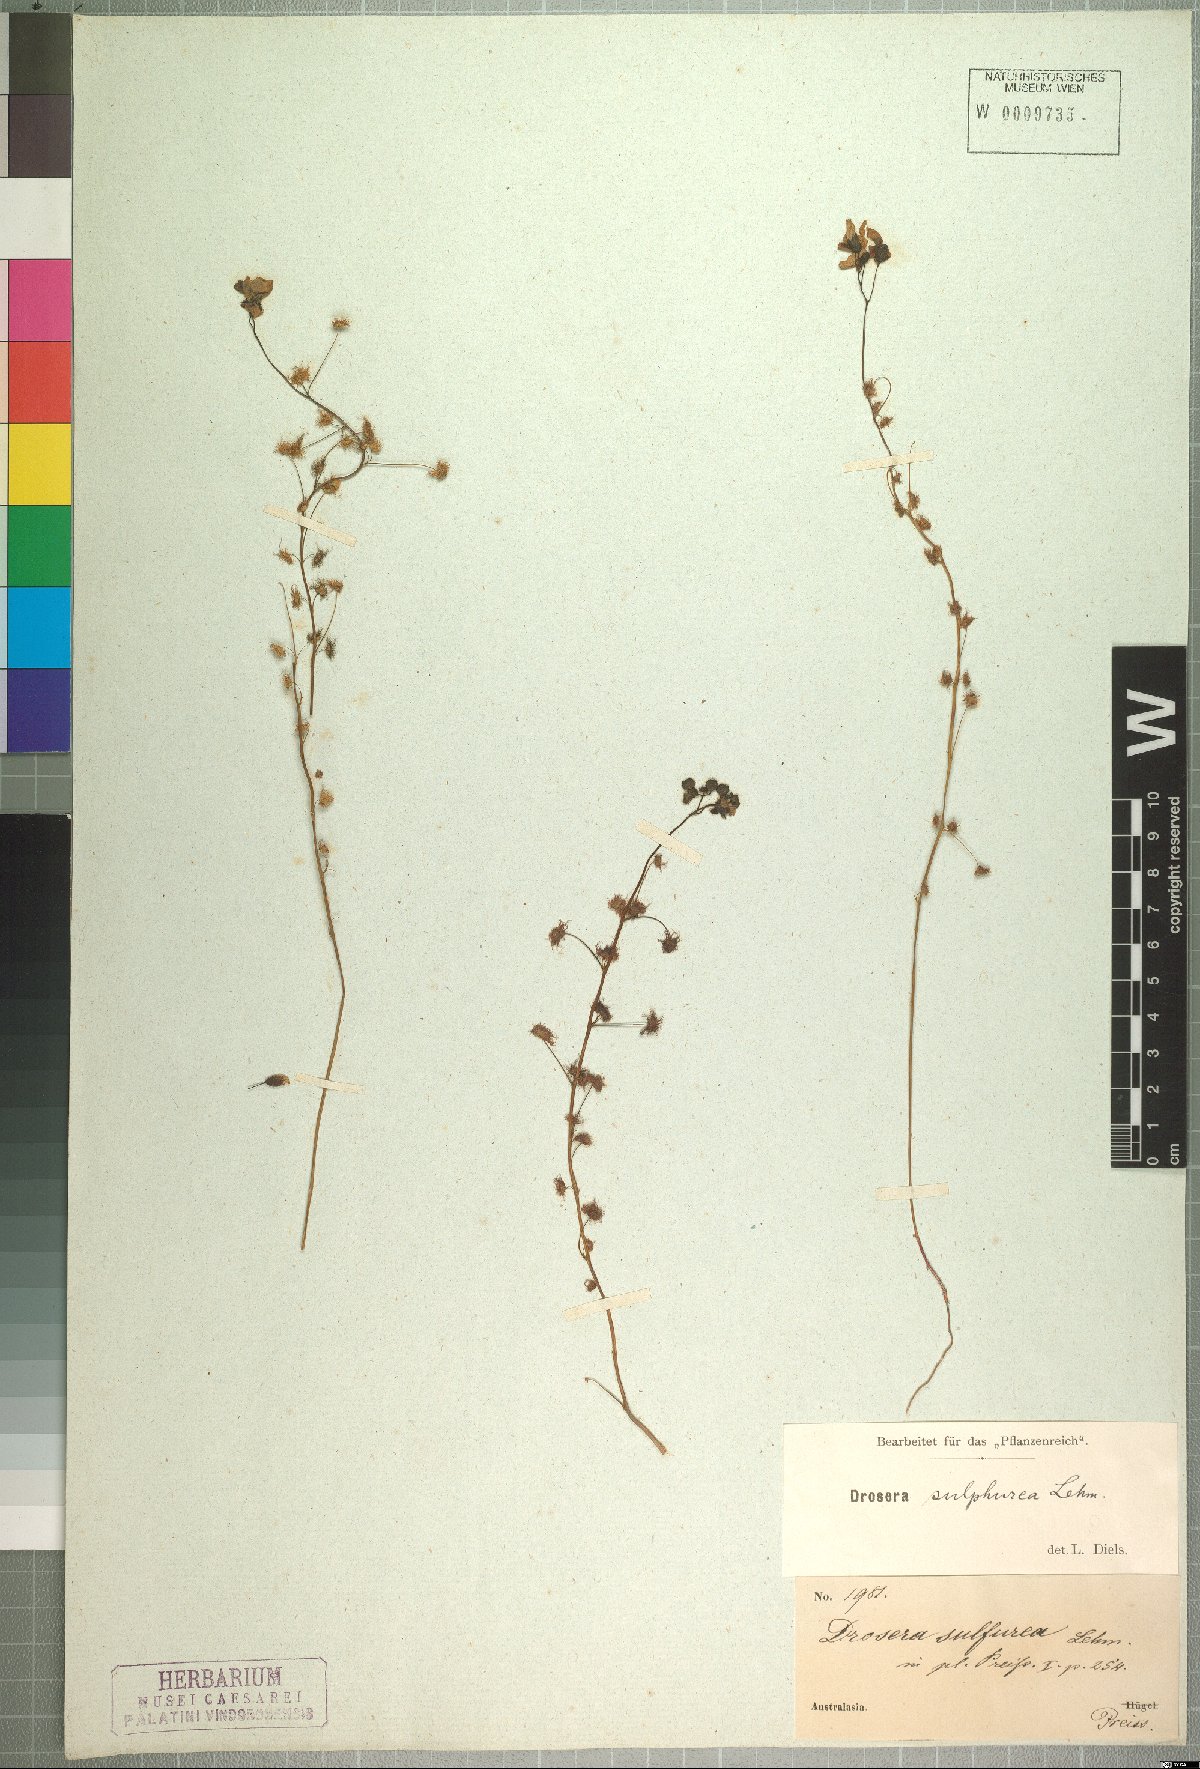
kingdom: Plantae
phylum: Tracheophyta
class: Magnoliopsida
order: Caryophyllales
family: Droseraceae
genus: Drosera
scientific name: Drosera sulphurea
